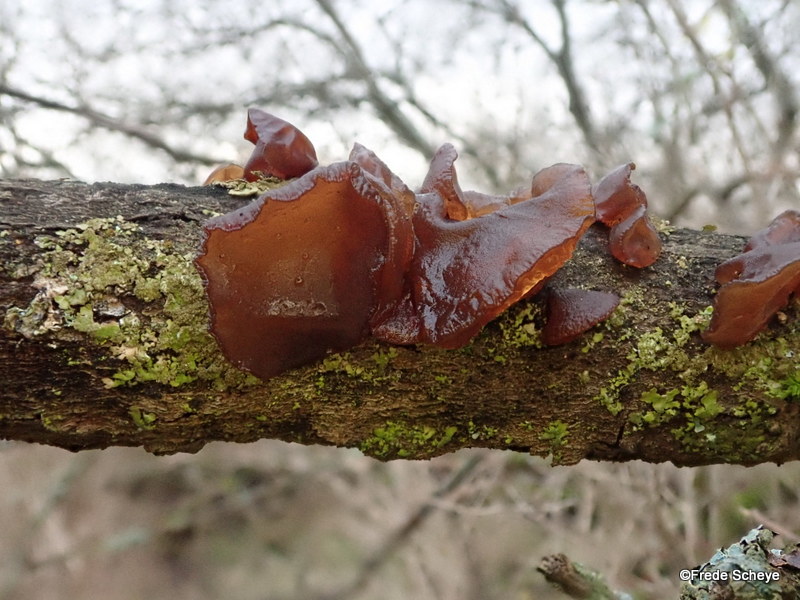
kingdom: Fungi
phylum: Basidiomycota
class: Agaricomycetes
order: Auriculariales
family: Auriculariaceae
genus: Exidia
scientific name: Exidia recisa
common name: pile-bævretop
